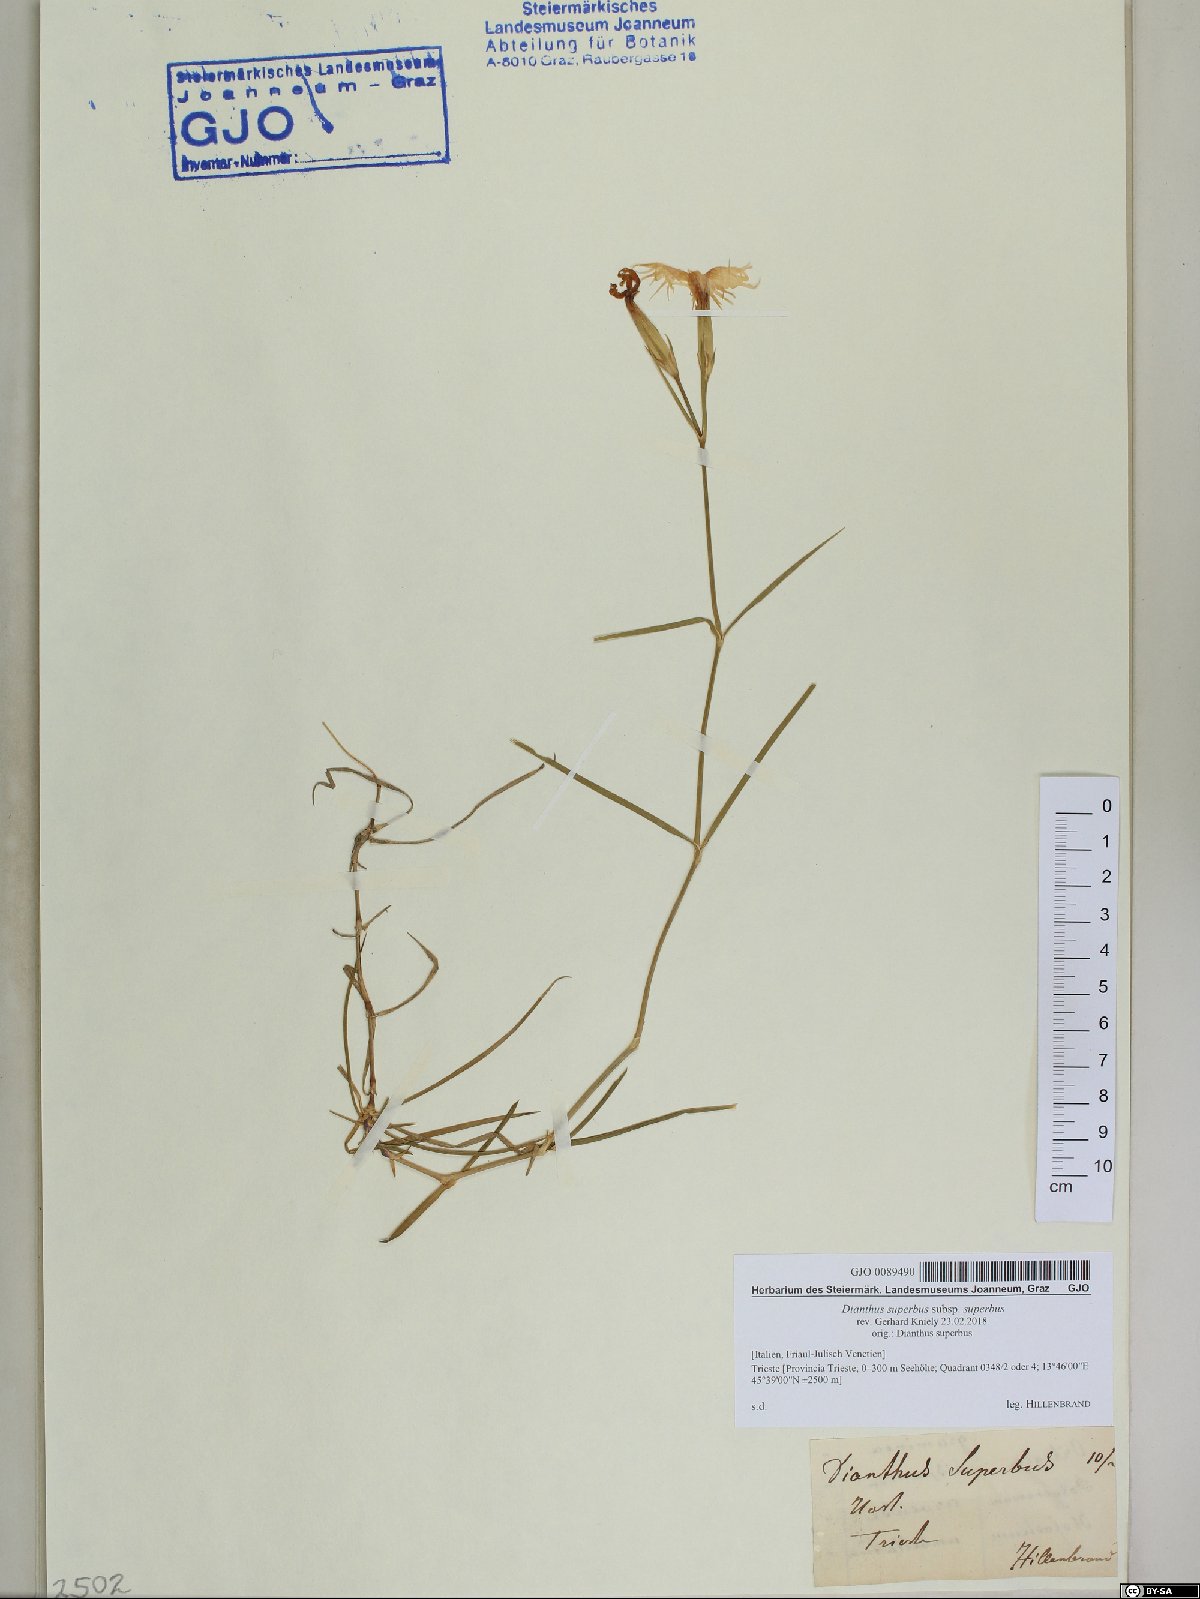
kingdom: Plantae
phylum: Tracheophyta
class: Magnoliopsida
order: Caryophyllales
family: Caryophyllaceae
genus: Dianthus
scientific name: Dianthus superbus
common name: Fringed pink
